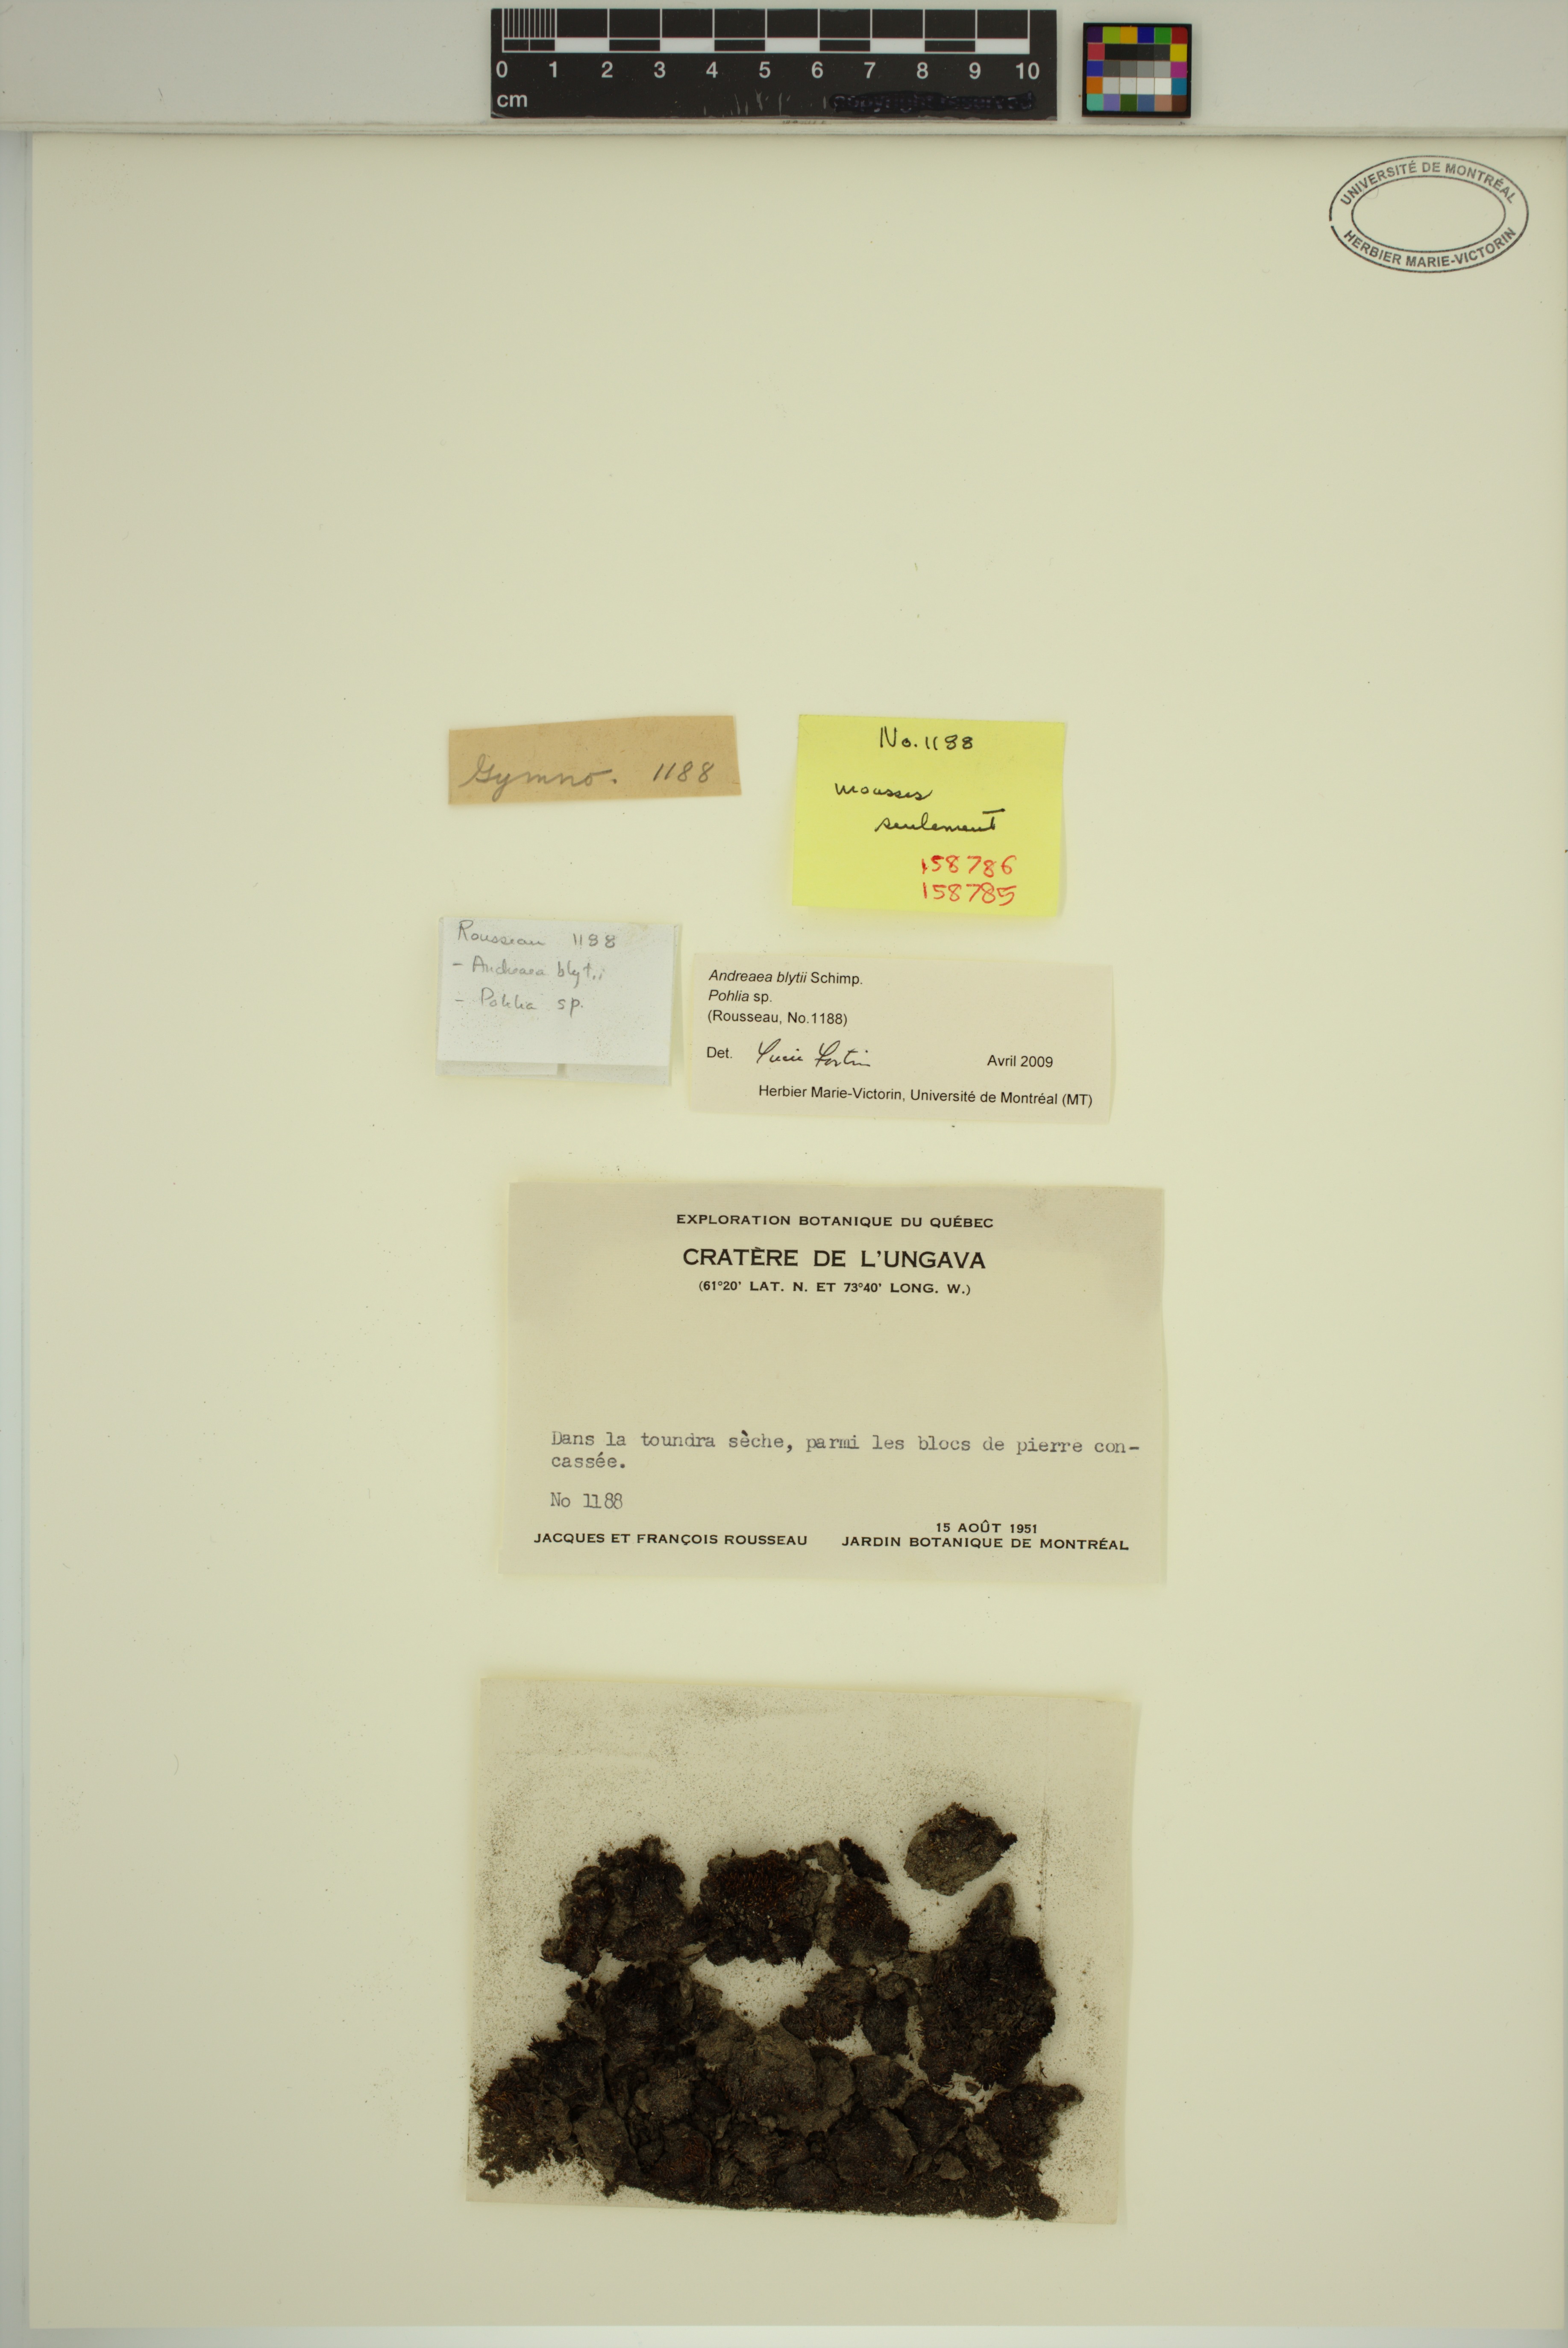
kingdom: Plantae
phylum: Bryophyta
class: Bryopsida
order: Bryales
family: Mniaceae
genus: Pohlia
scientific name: Pohlia
